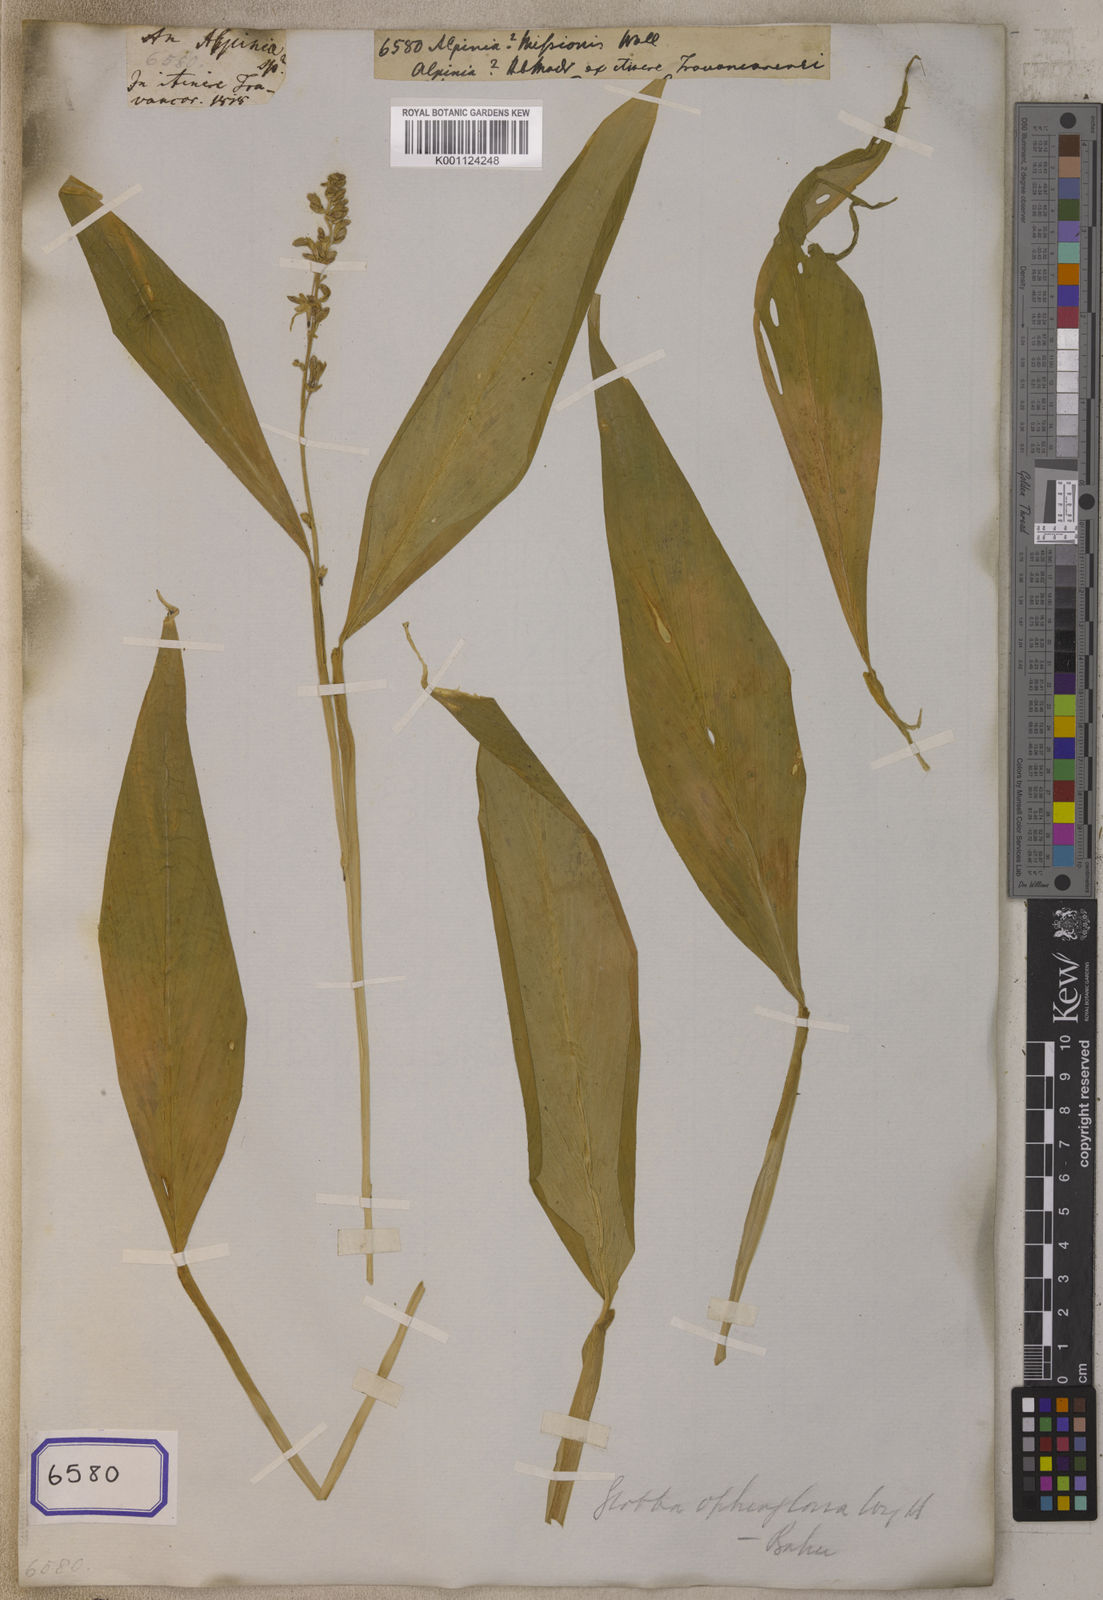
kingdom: Plantae
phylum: Tracheophyta
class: Liliopsida
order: Zingiberales
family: Zingiberaceae
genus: Globba
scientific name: Globba orixensis
